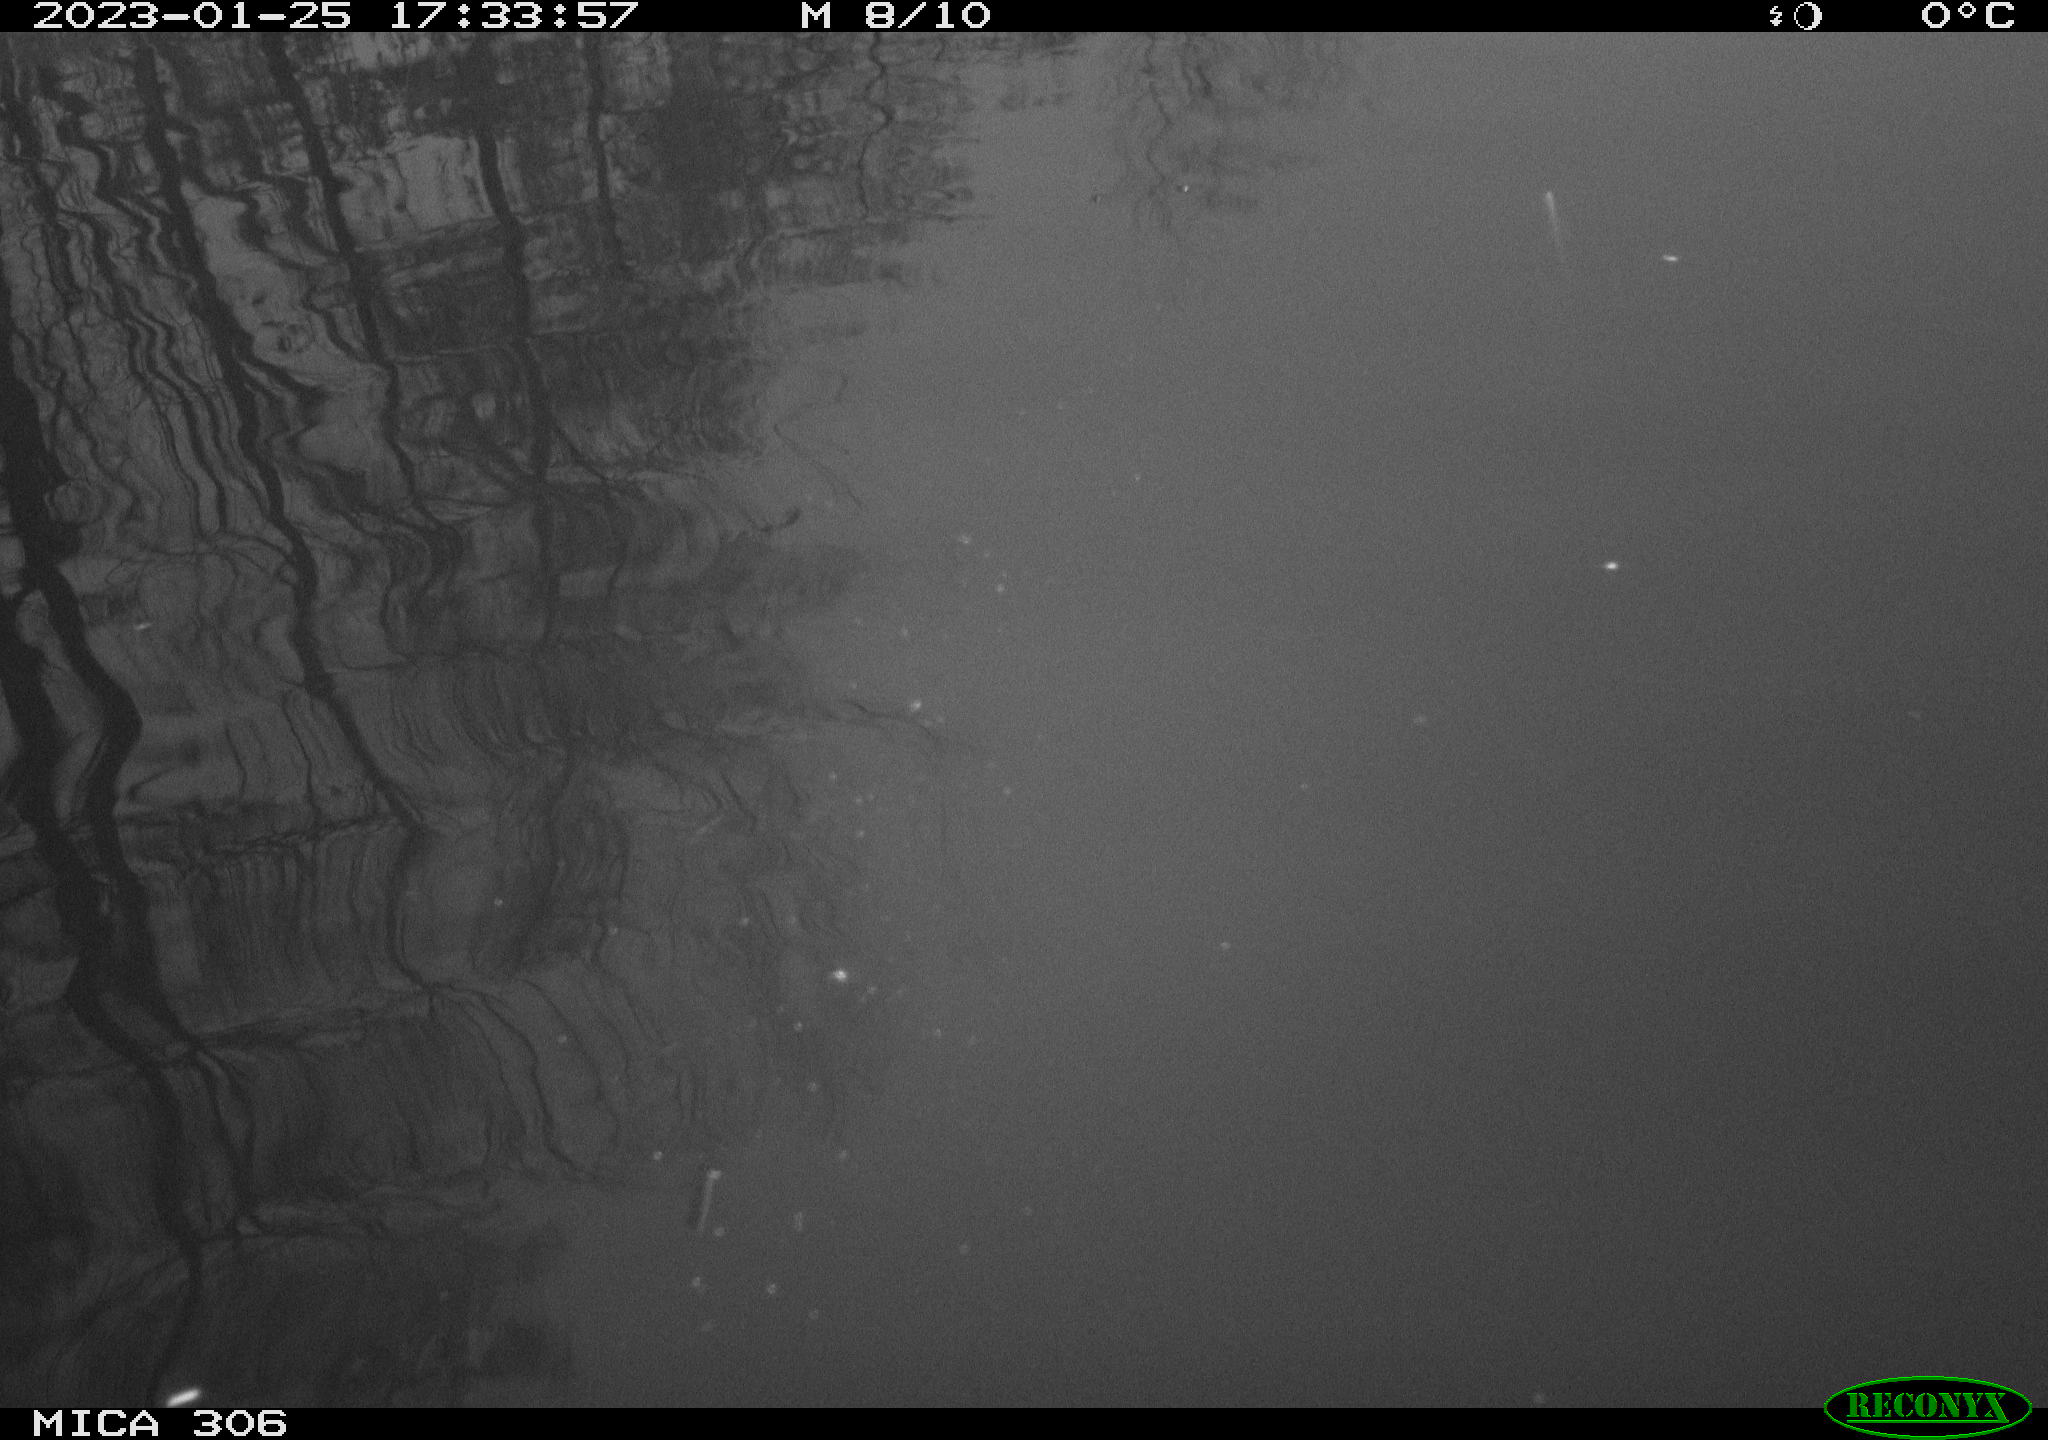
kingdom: Animalia
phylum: Chordata
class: Aves
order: Anseriformes
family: Anatidae
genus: Anas
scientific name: Anas
